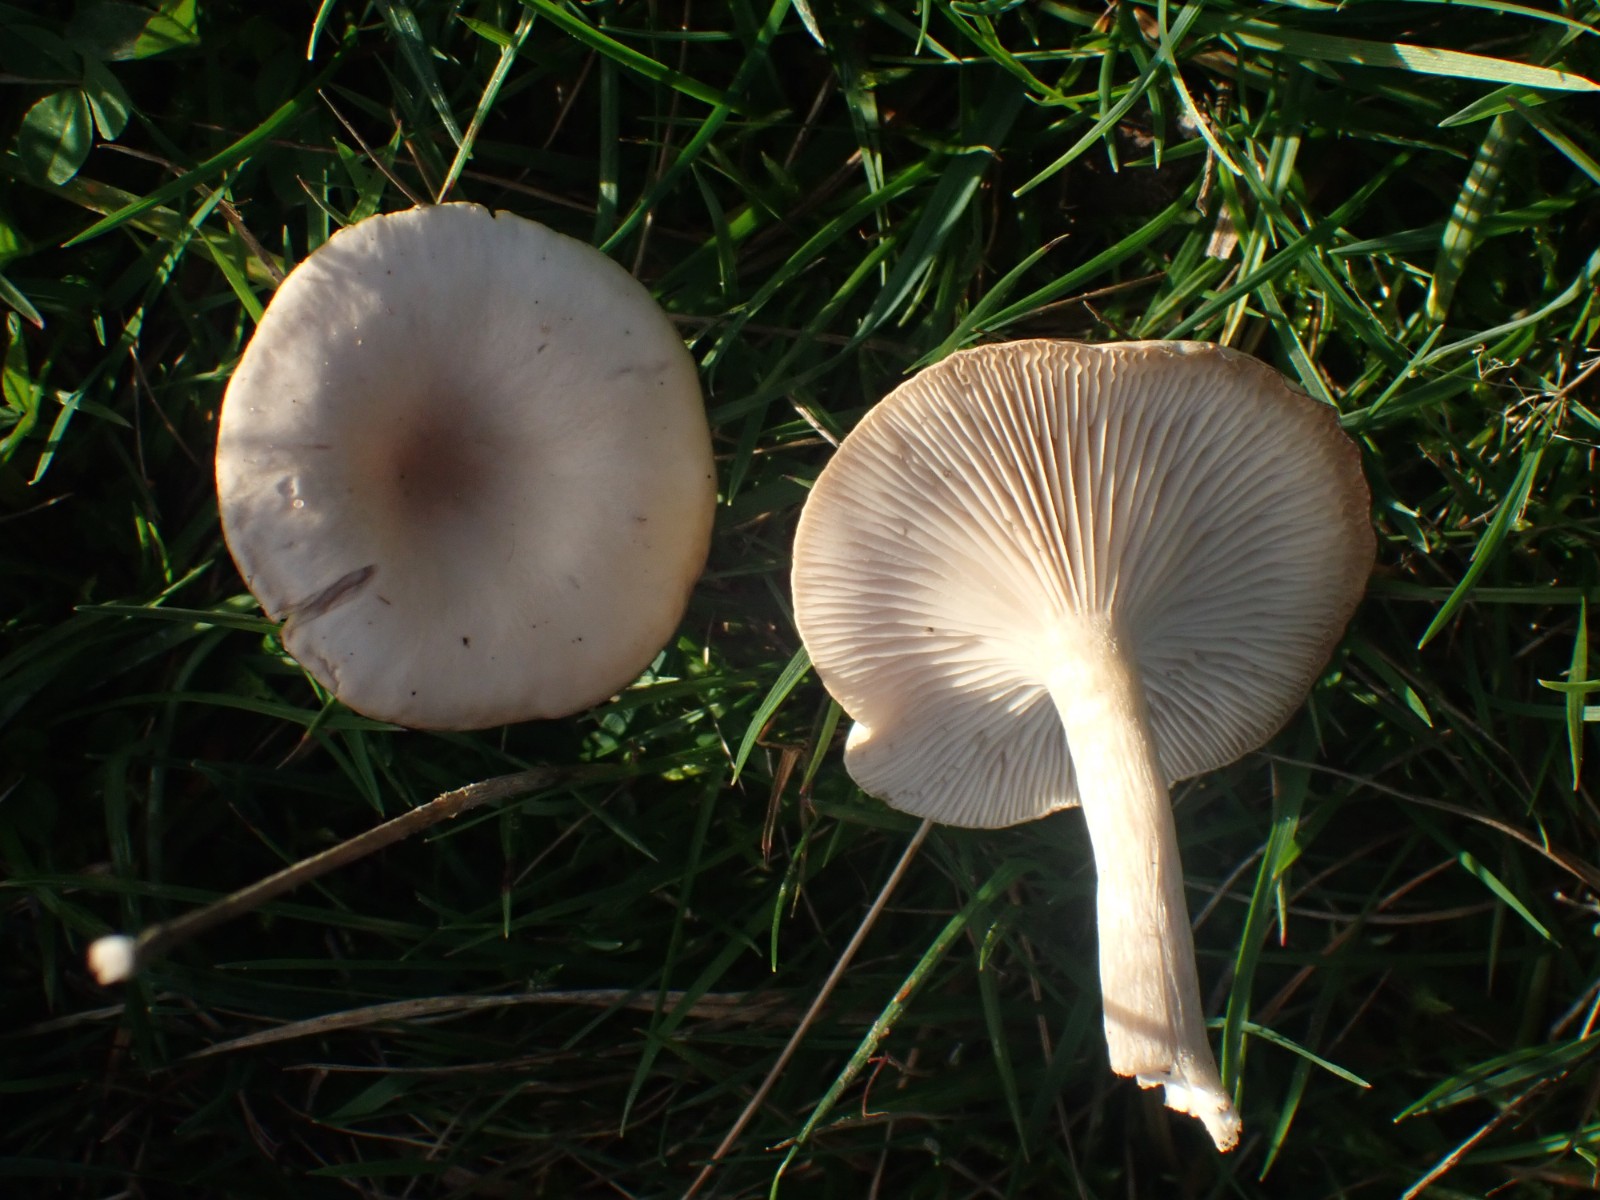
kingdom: Fungi
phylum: Basidiomycota
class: Agaricomycetes
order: Agaricales
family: Tricholomataceae
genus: Infundibulicybe
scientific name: Infundibulicybe gibba
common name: almindelig tragthat
